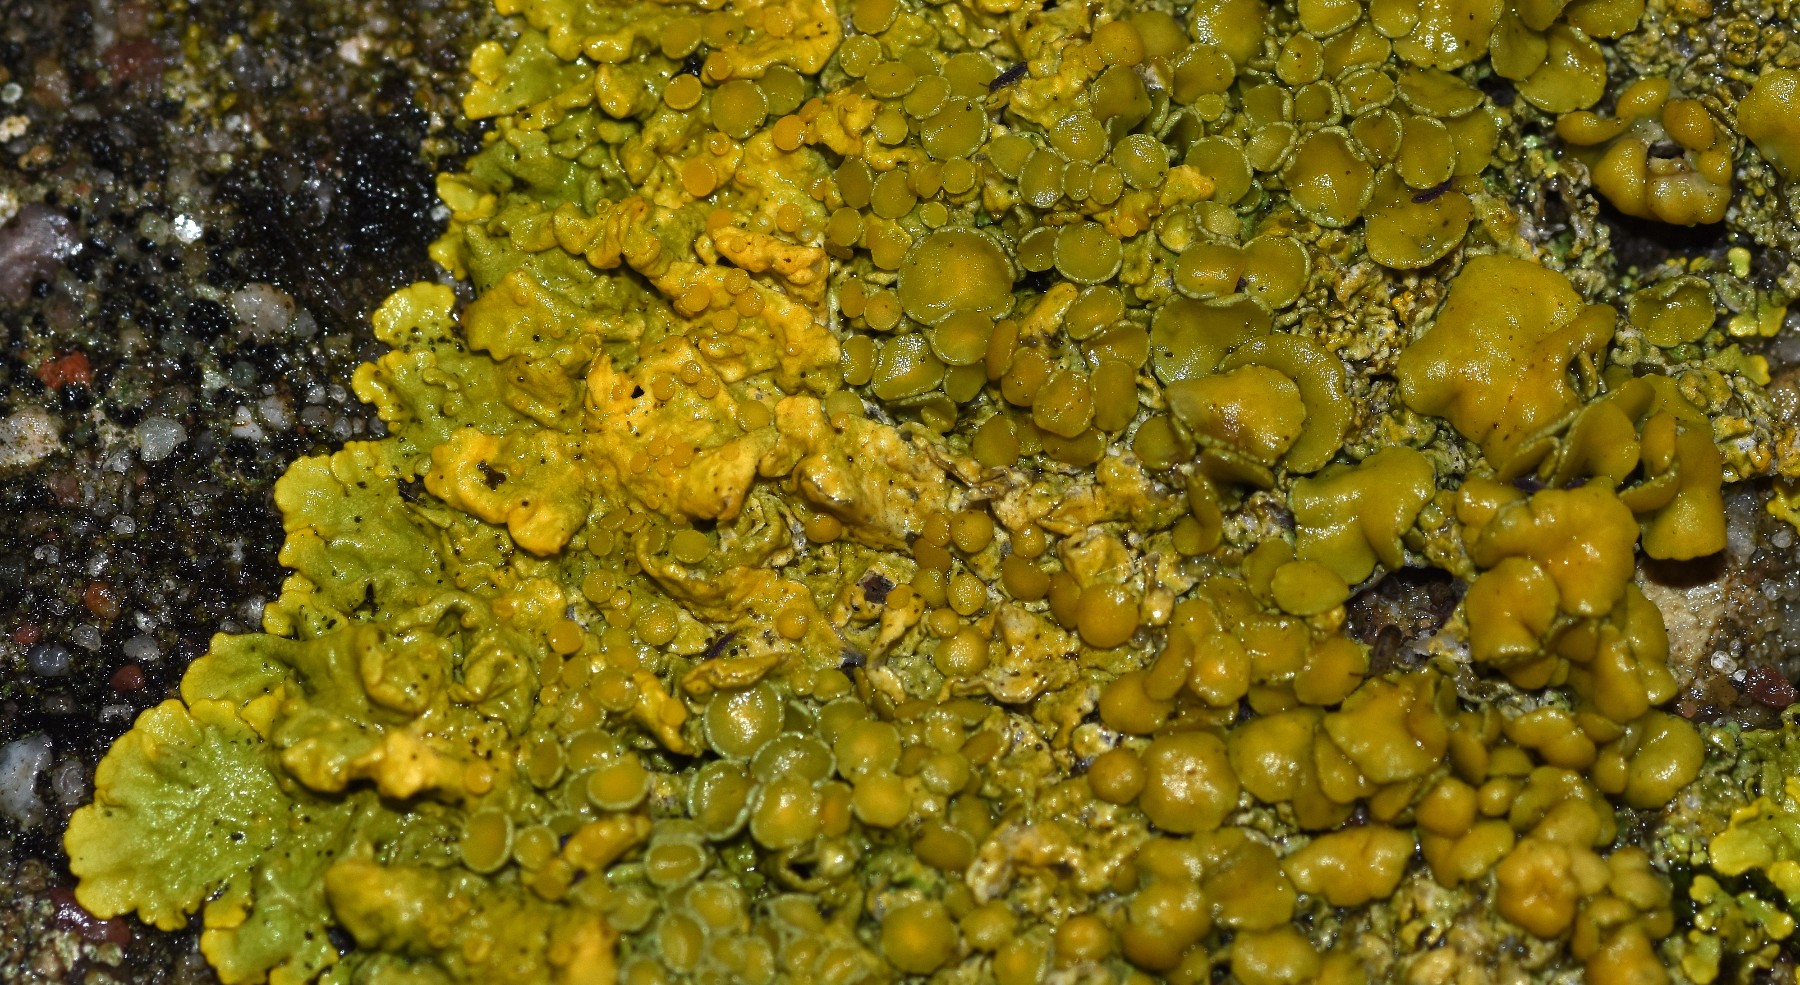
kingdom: Fungi
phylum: Ascomycota
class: Lecanoromycetes
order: Teloschistales
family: Teloschistaceae
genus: Xanthoria
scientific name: Xanthoria parietina
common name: almindelig væggelav
